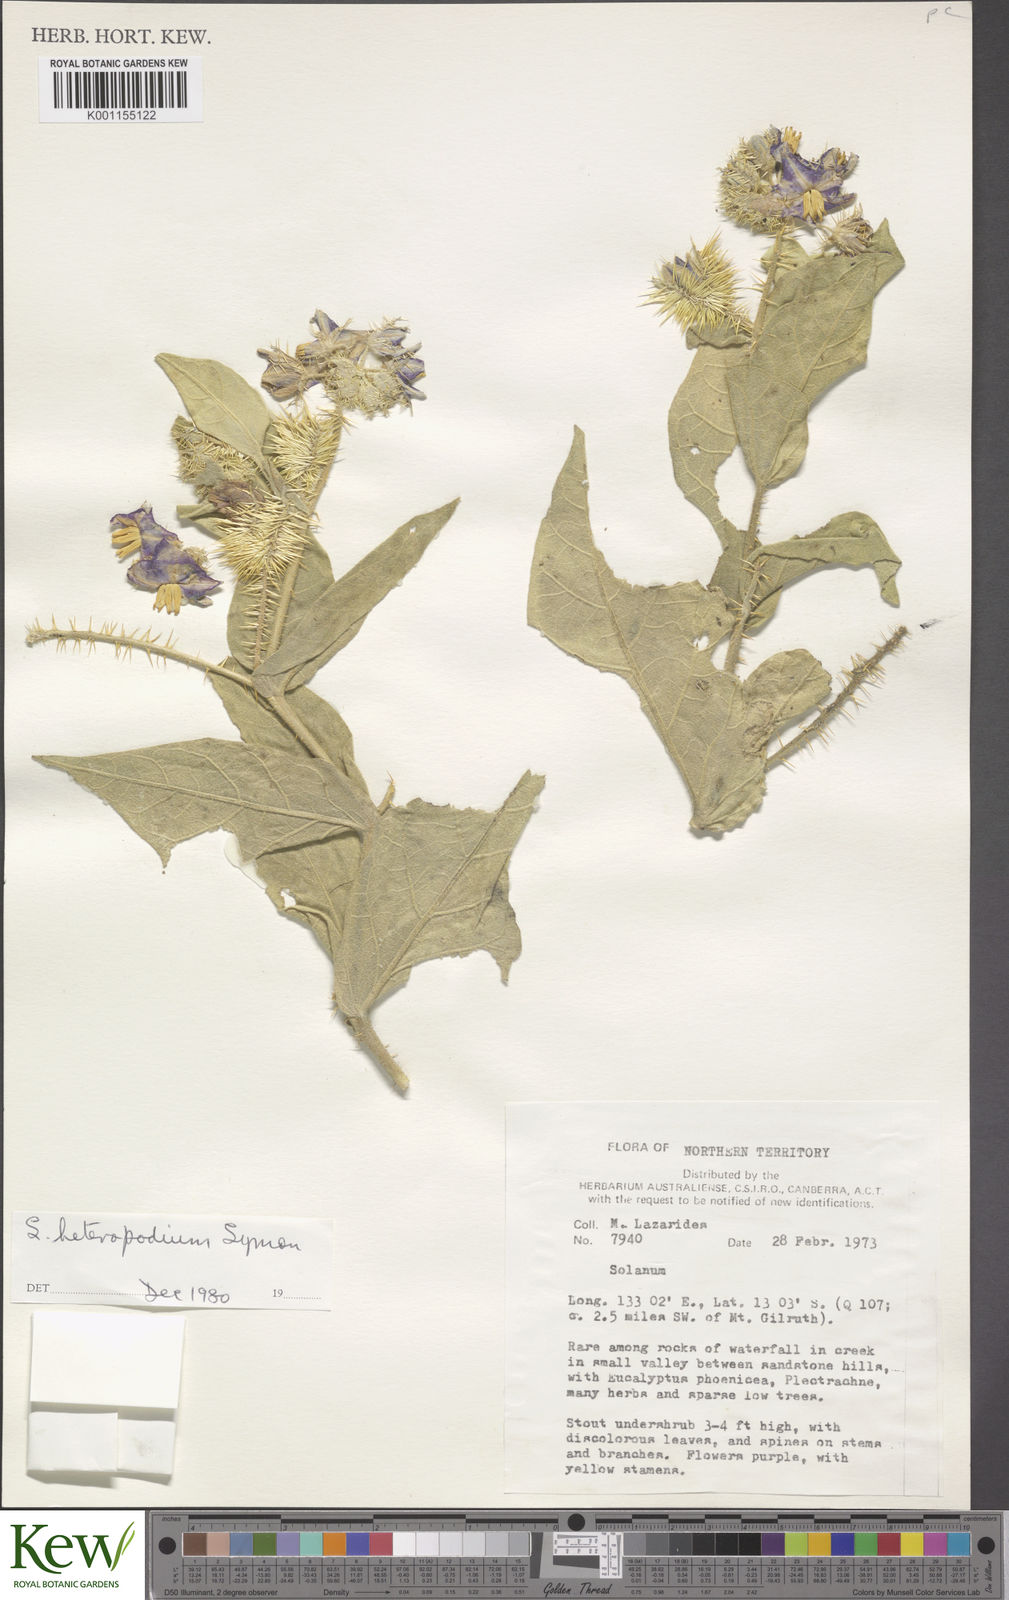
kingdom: Plantae
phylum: Tracheophyta
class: Magnoliopsida
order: Solanales
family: Solanaceae
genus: Solanum
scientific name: Solanum heteropodium
